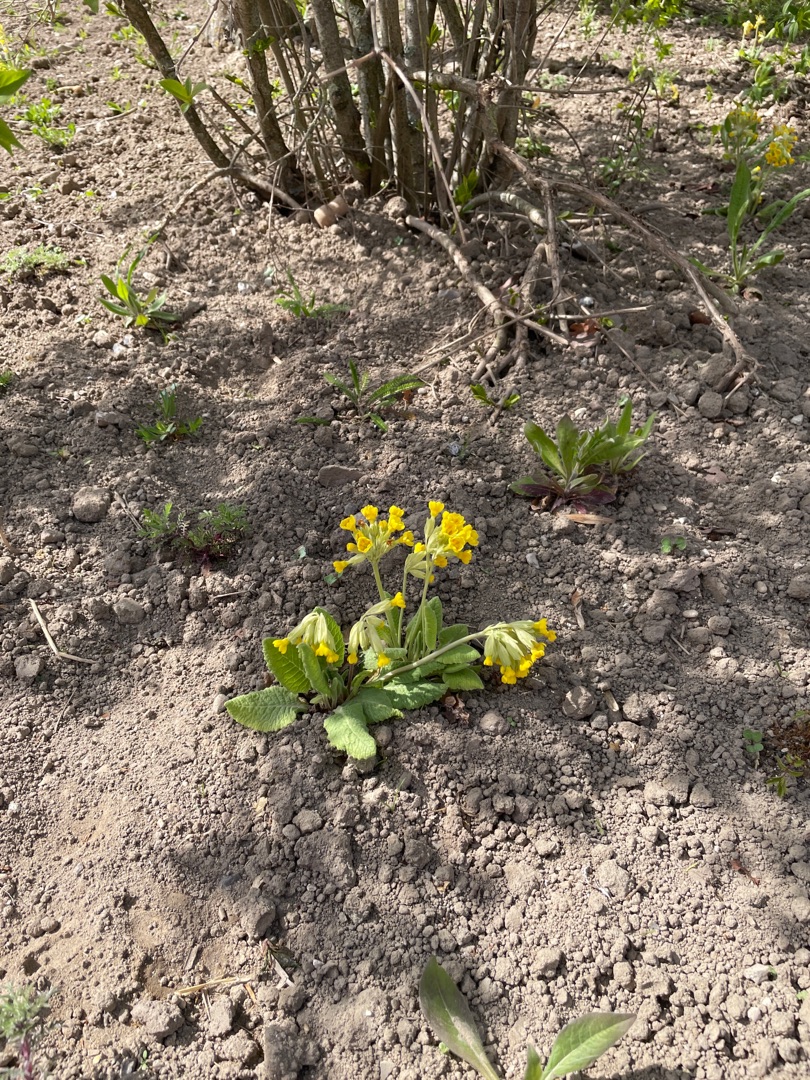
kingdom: Plantae
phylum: Tracheophyta
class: Magnoliopsida
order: Ericales
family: Primulaceae
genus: Primula
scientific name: Primula veris
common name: Hulkravet kodriver
